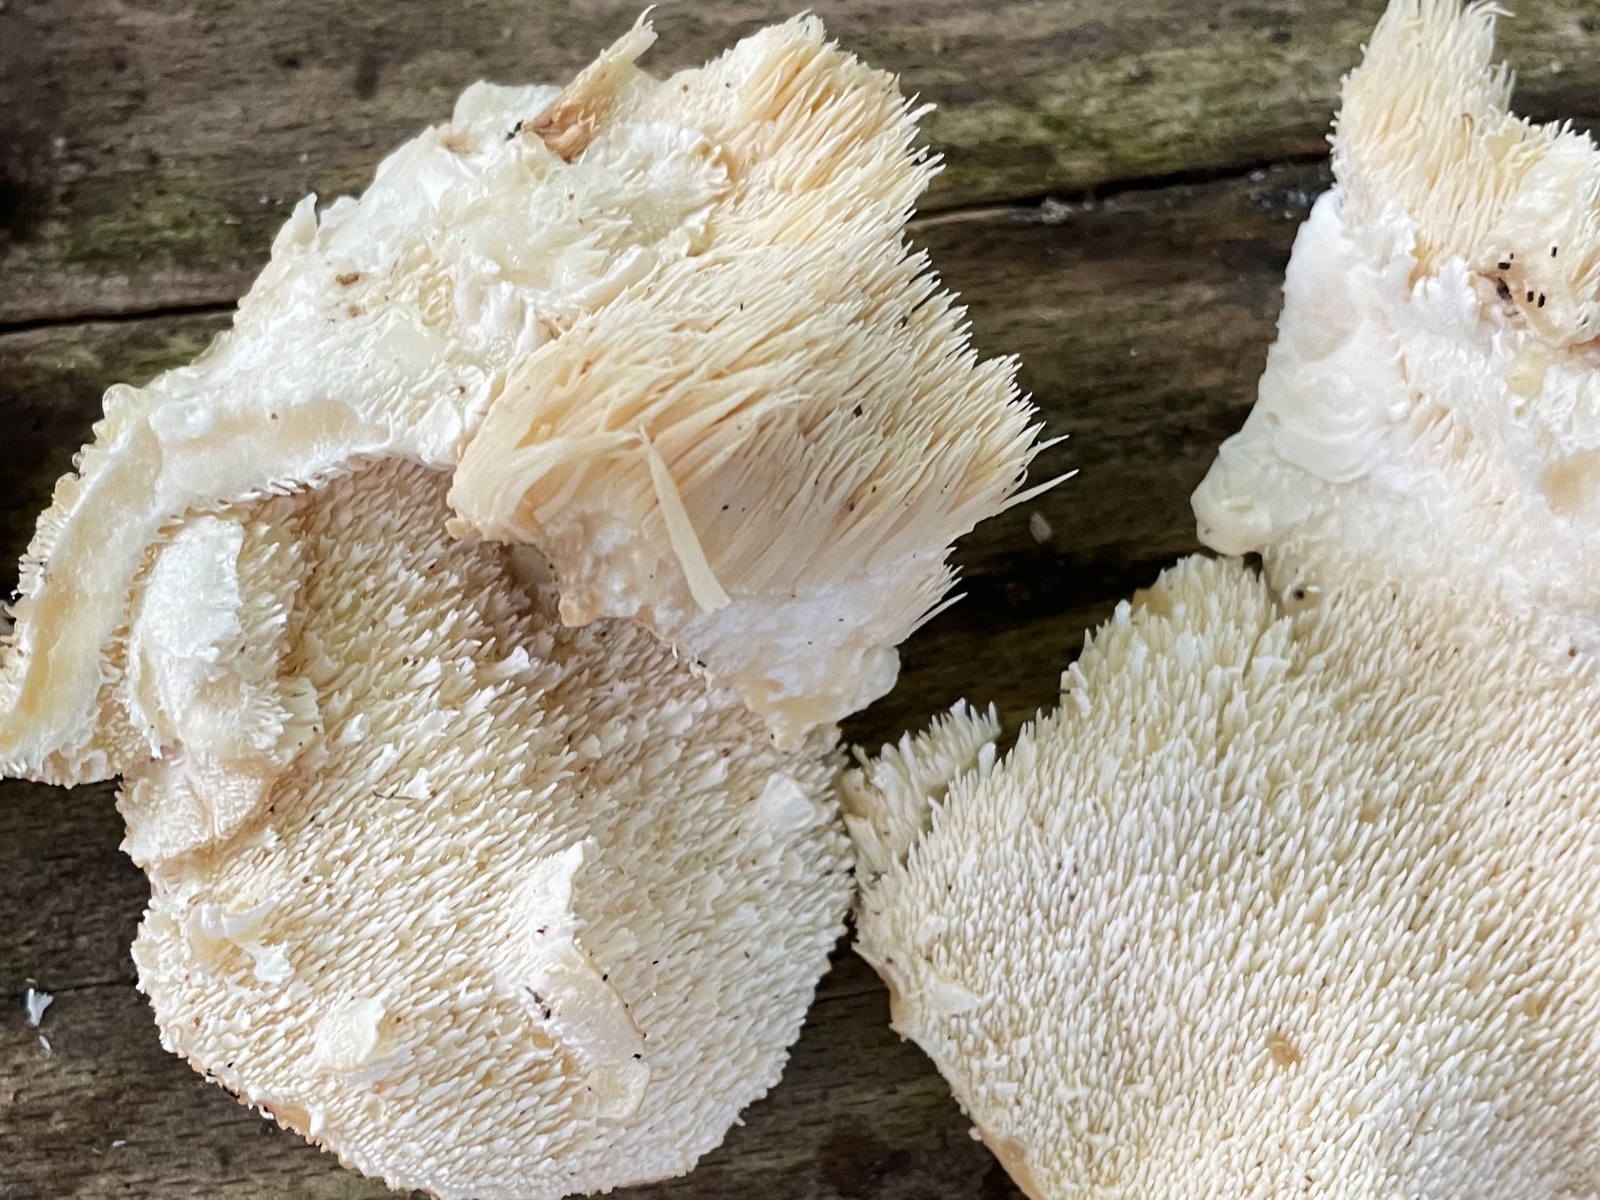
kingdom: Fungi
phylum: Basidiomycota
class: Agaricomycetes
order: Russulales
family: Hericiaceae
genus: Hericium
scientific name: Hericium cirrhatum
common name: børstepigsvamp
